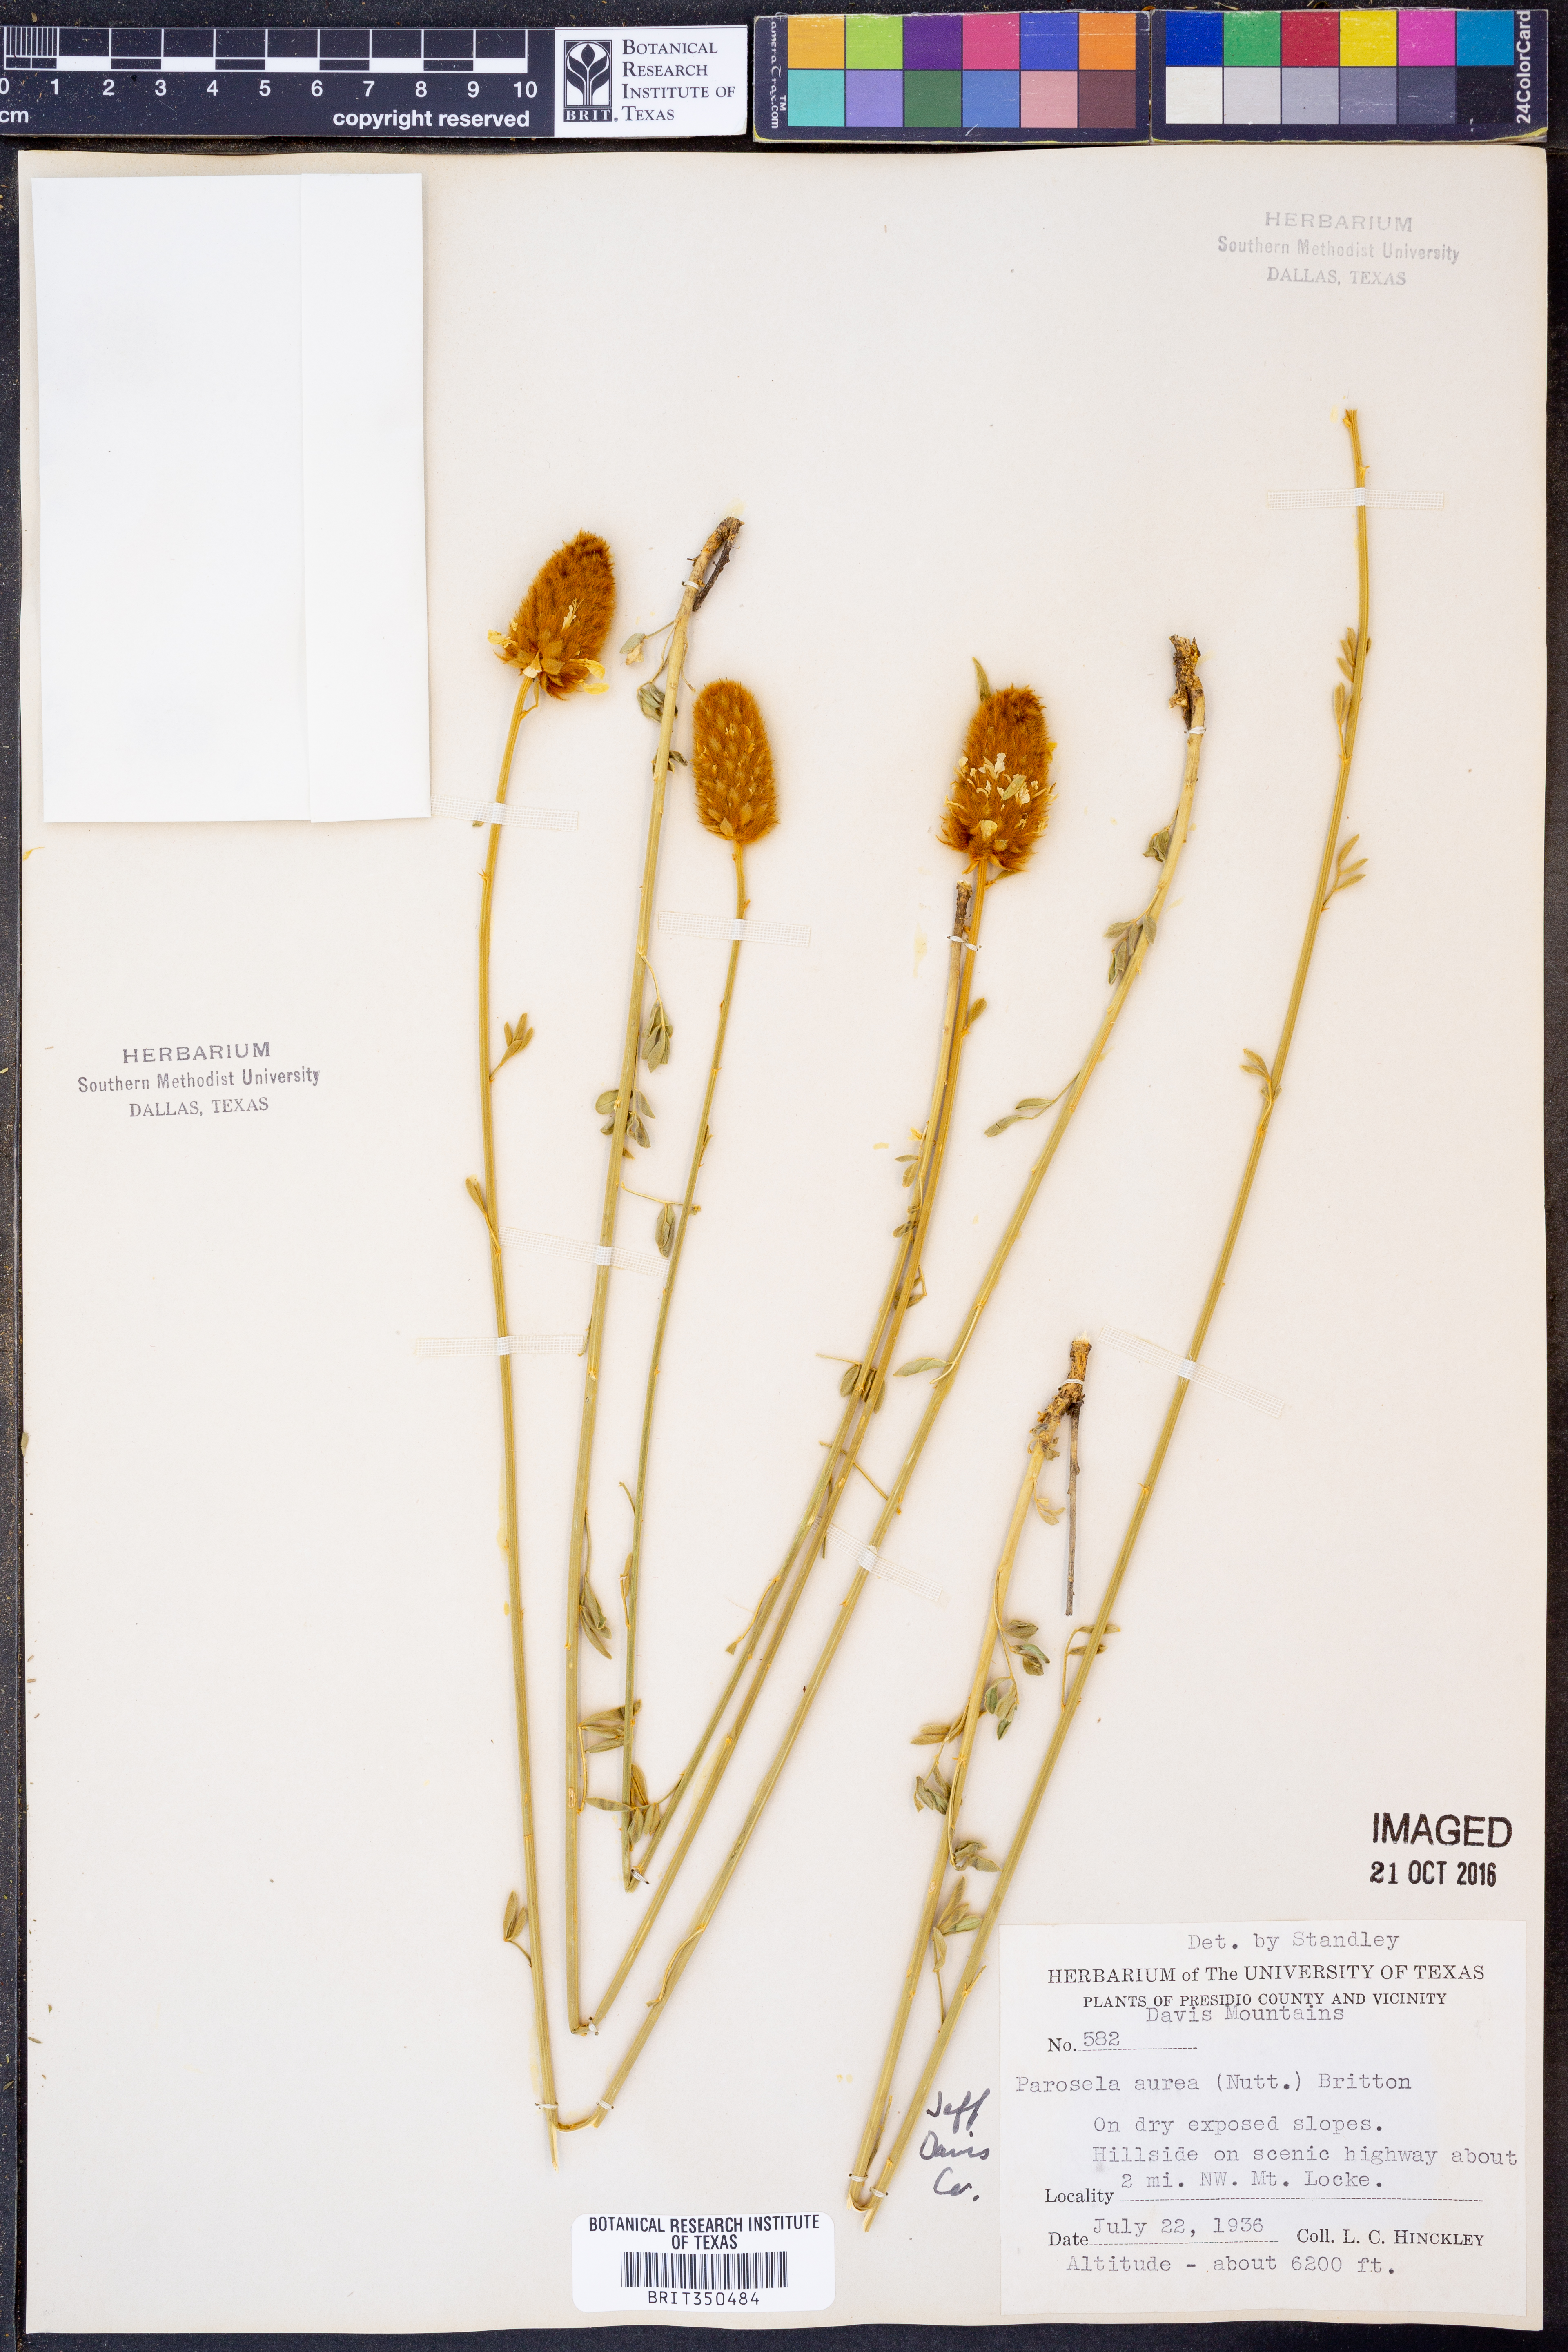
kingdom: Plantae
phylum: Tracheophyta
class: Magnoliopsida
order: Fabales
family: Fabaceae
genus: Dalea
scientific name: Dalea aurea
